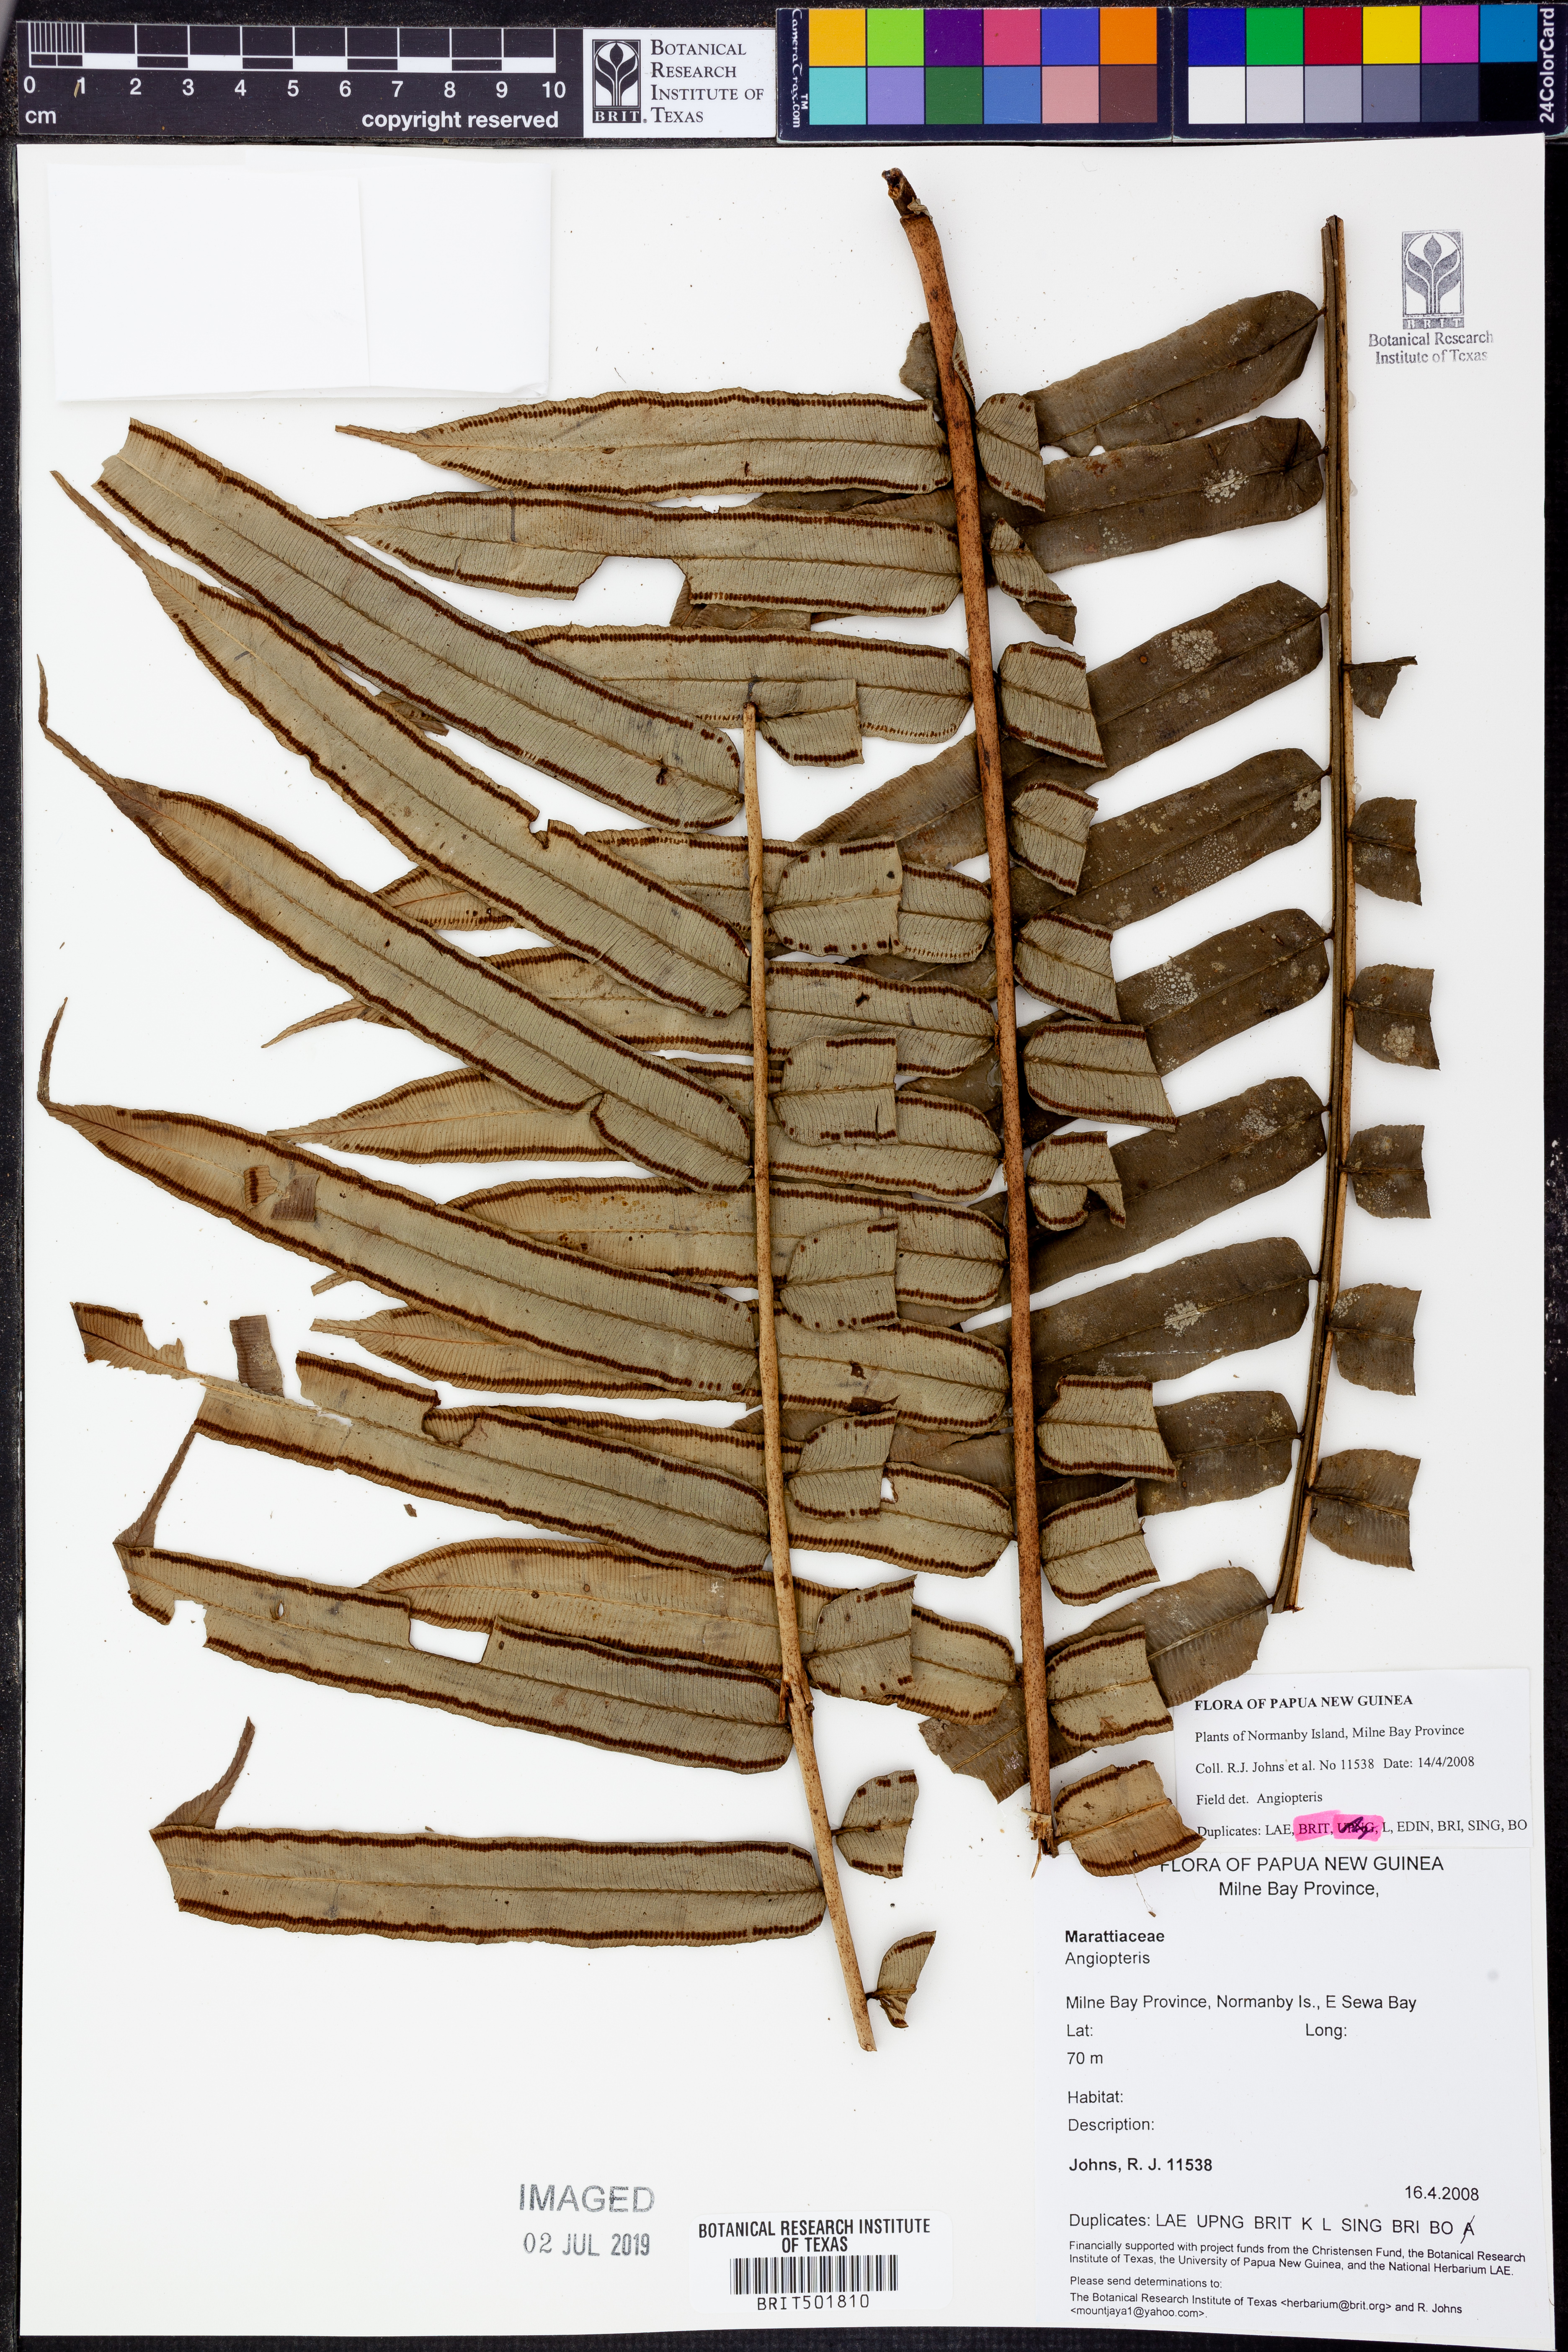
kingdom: Plantae
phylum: Tracheophyta
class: Polypodiopsida
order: Marattiales
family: Marattiaceae
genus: Angiopteris
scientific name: Angiopteris
